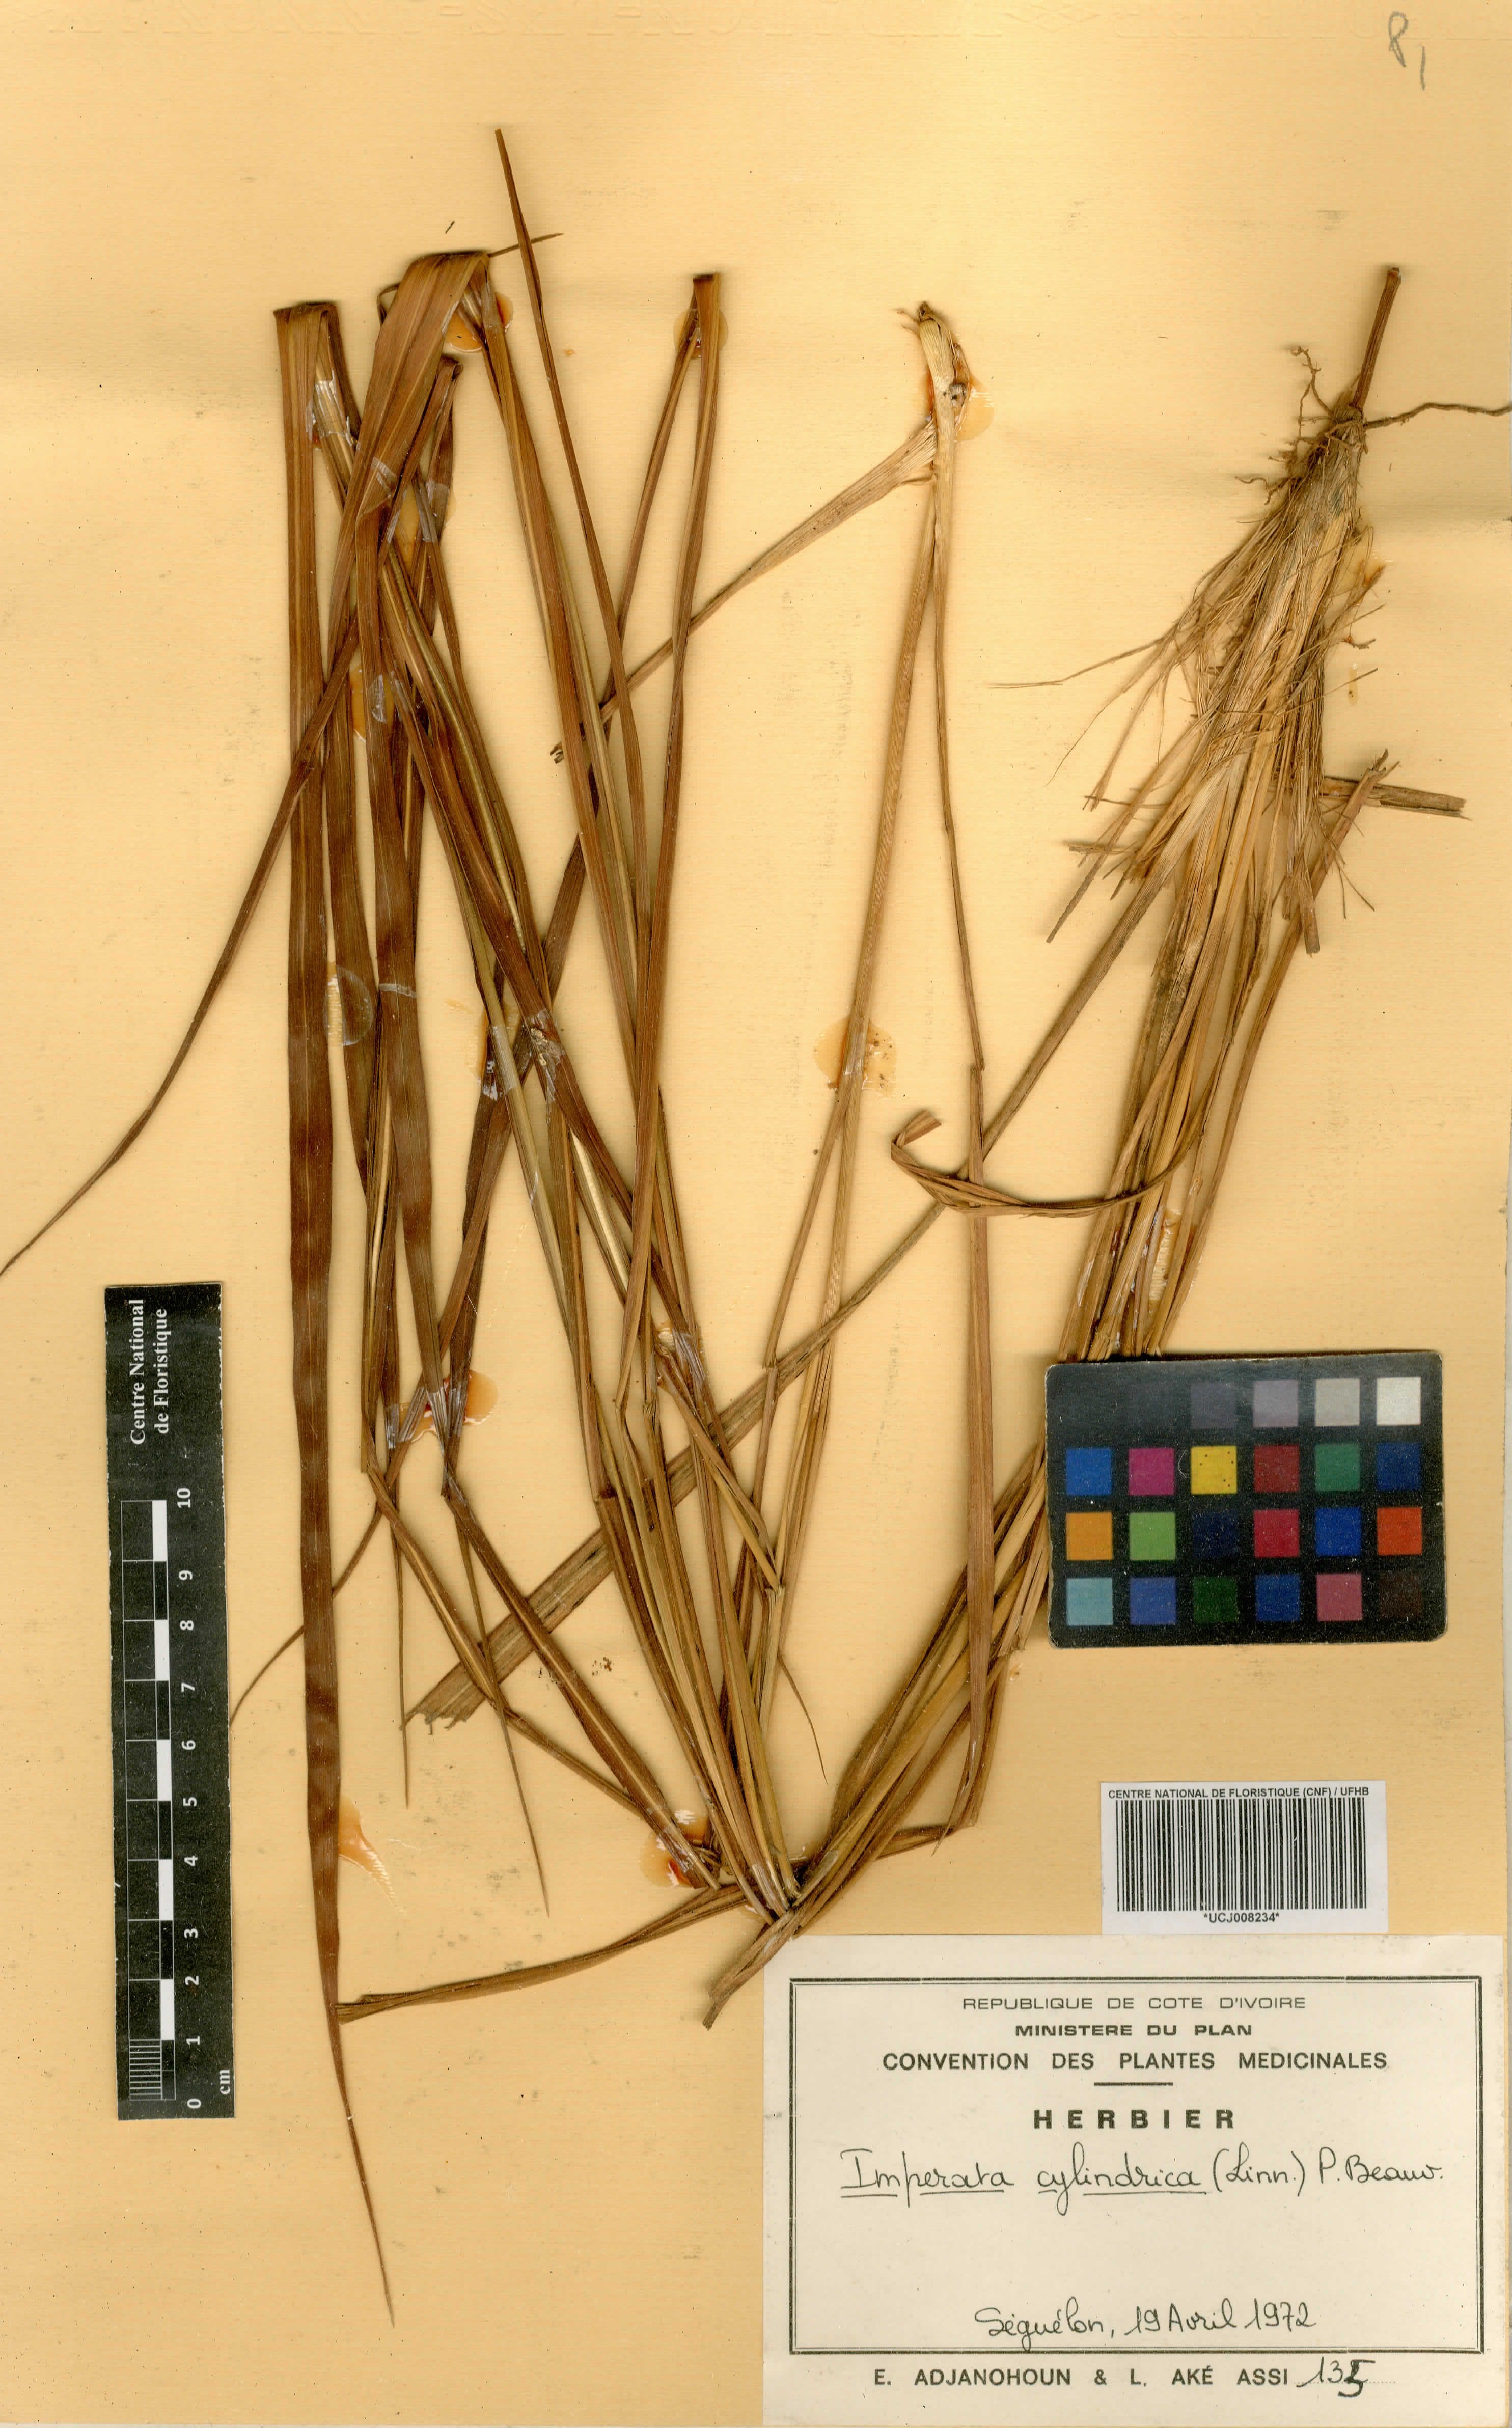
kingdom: Plantae
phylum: Tracheophyta
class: Liliopsida
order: Poales
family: Poaceae
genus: Imperata
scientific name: Imperata cylindrica
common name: Cogongrass
